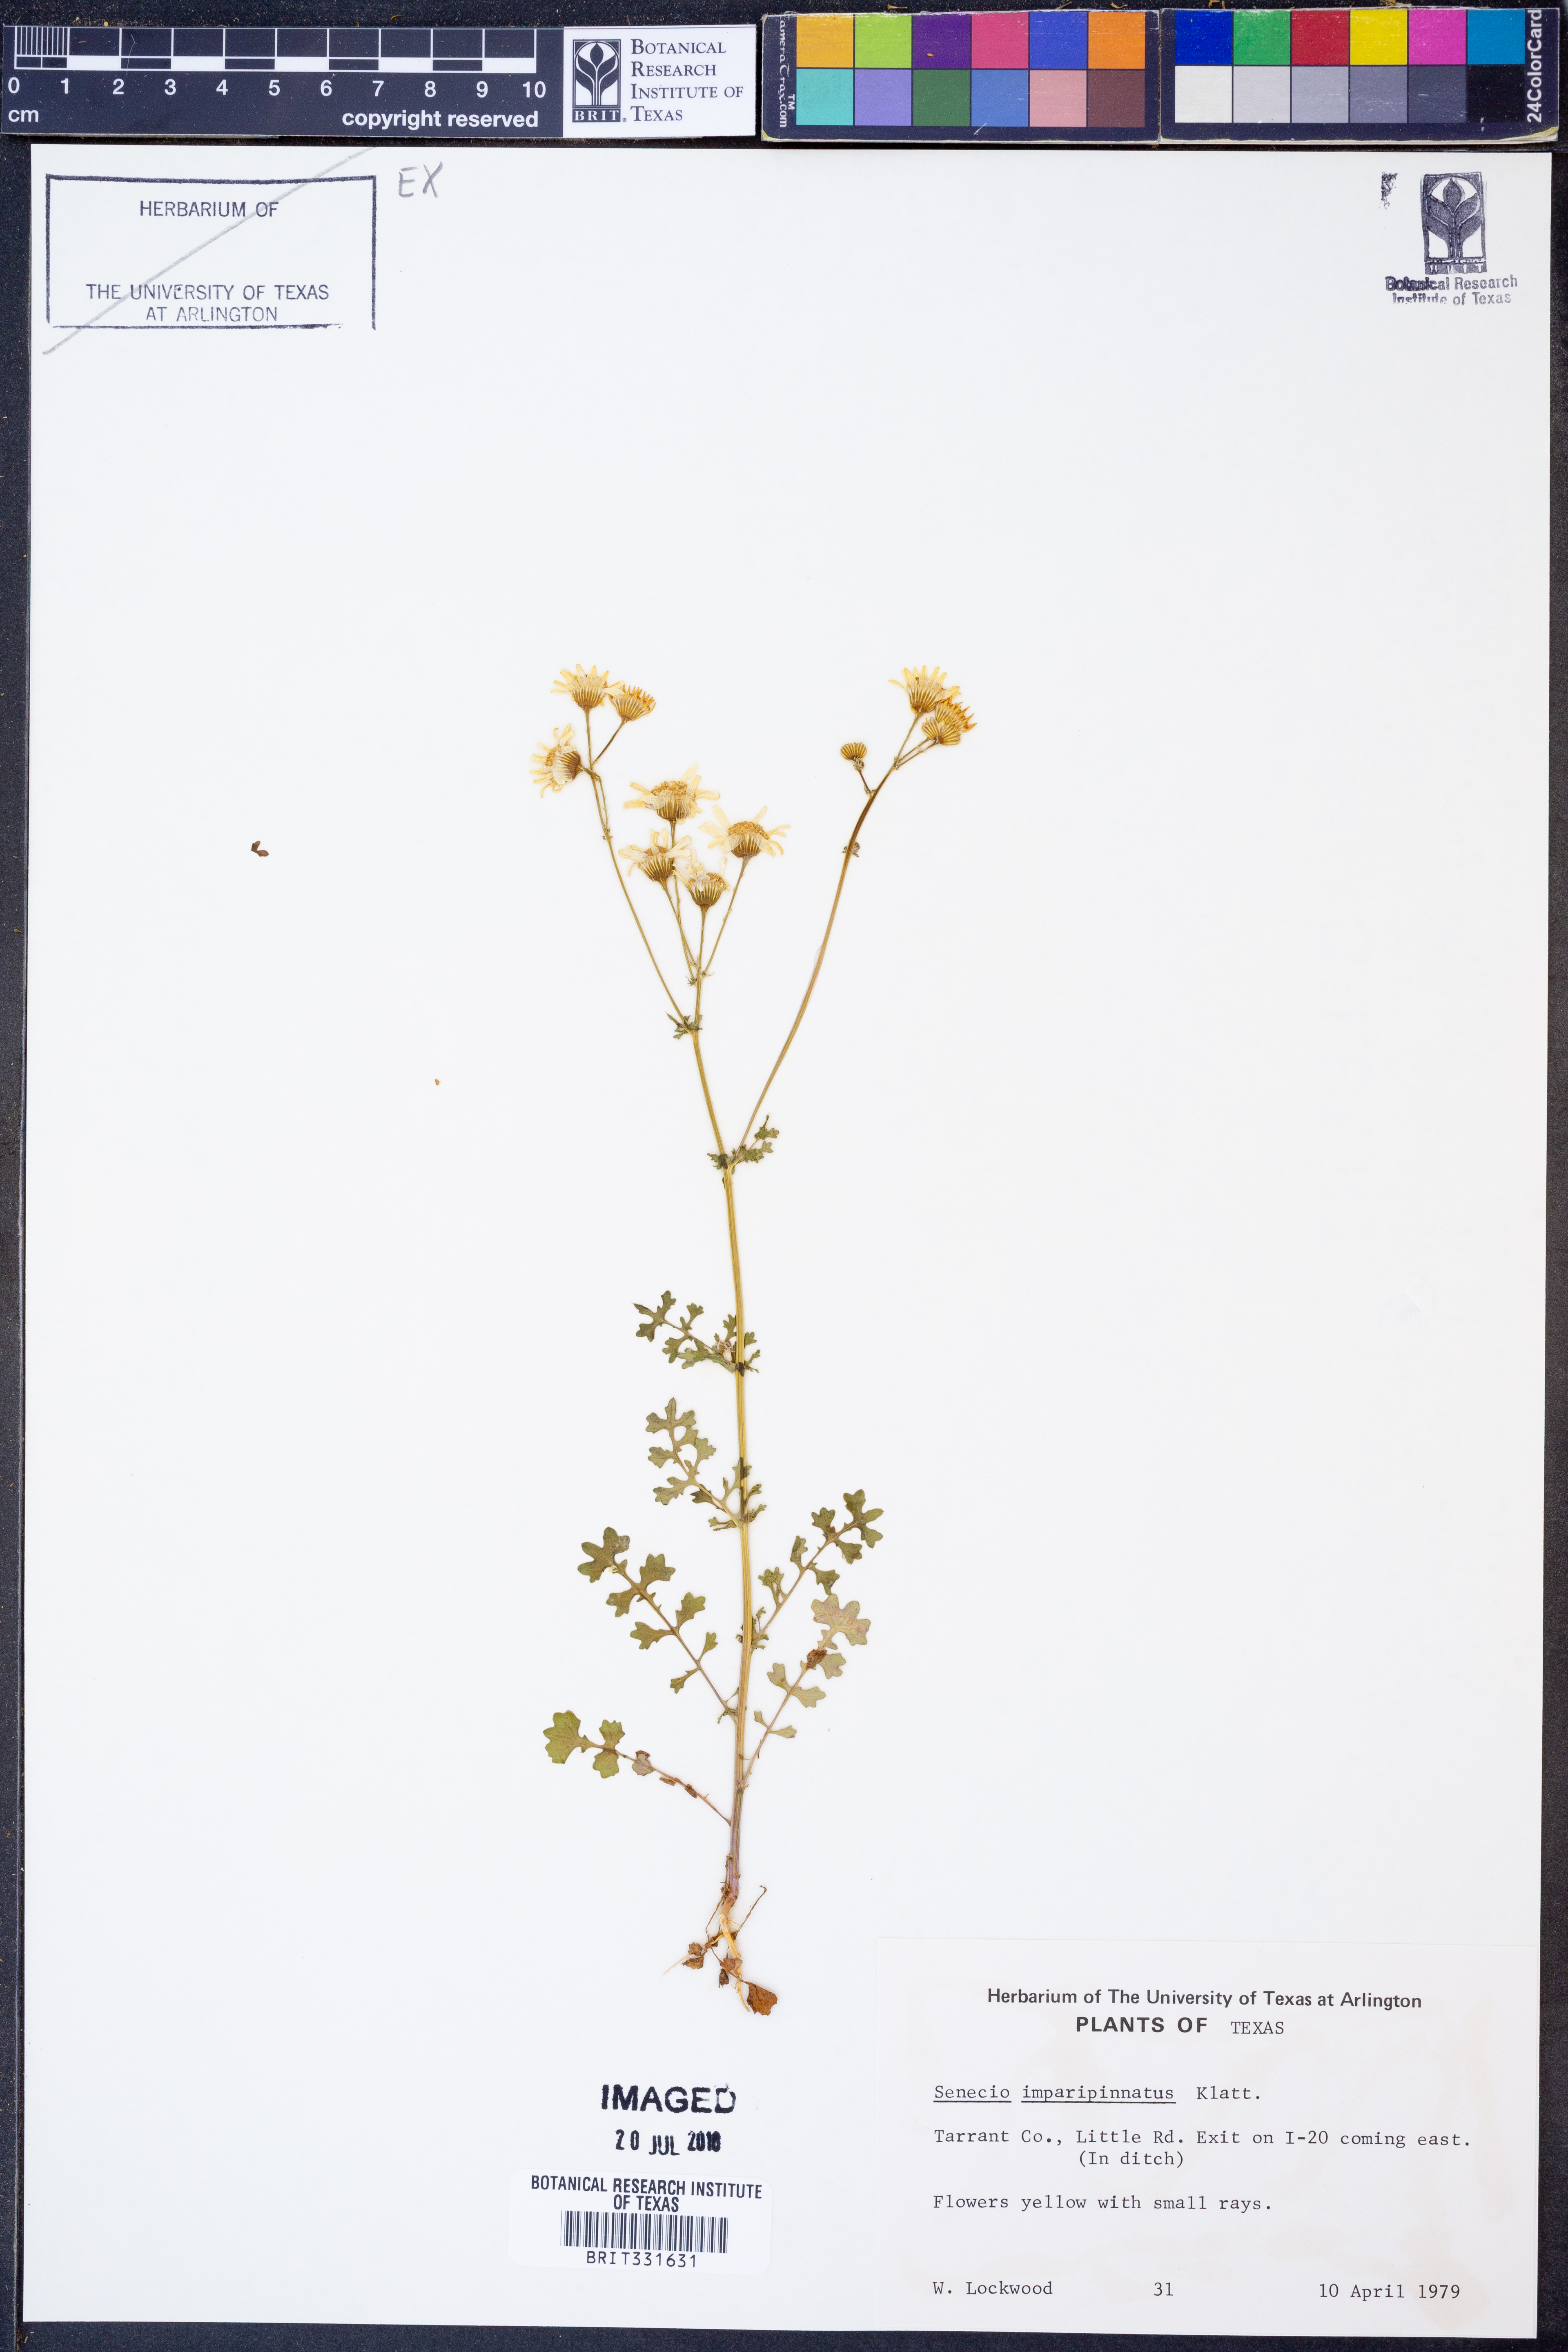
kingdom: Plantae
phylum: Tracheophyta
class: Magnoliopsida
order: Asterales
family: Asteraceae
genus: Packera
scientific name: Packera tampicana
